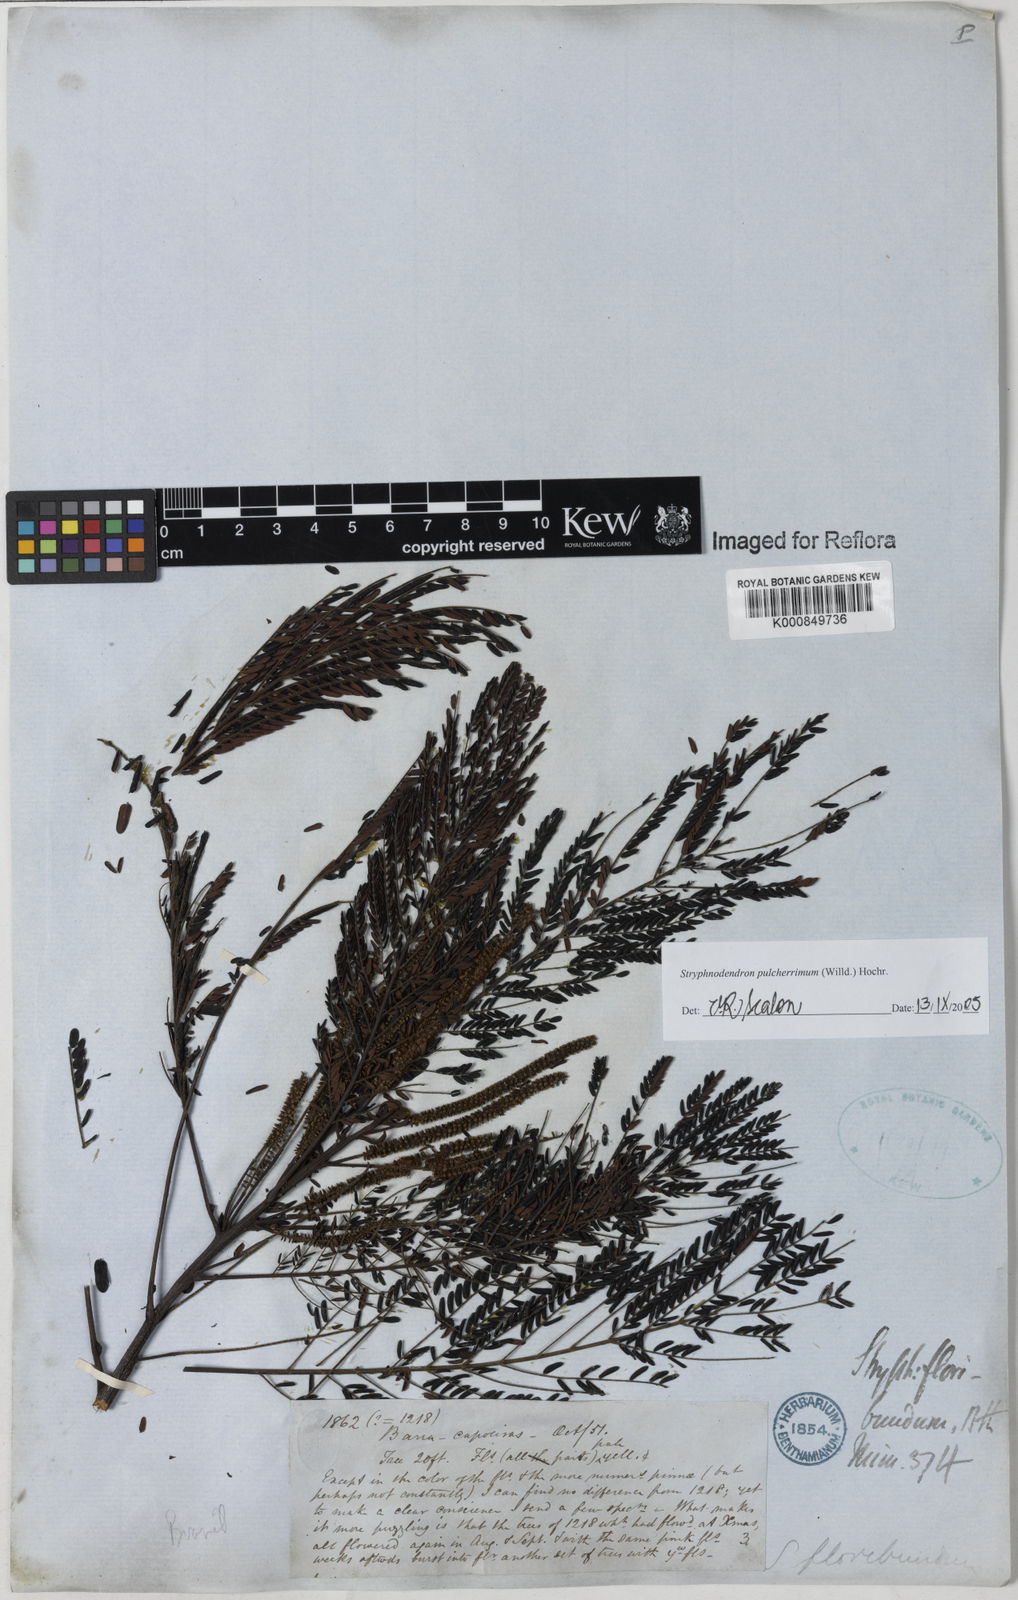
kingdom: Plantae
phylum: Tracheophyta
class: Magnoliopsida
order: Fabales
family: Fabaceae
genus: Stryphnodendron
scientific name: Stryphnodendron pulcherrimum
